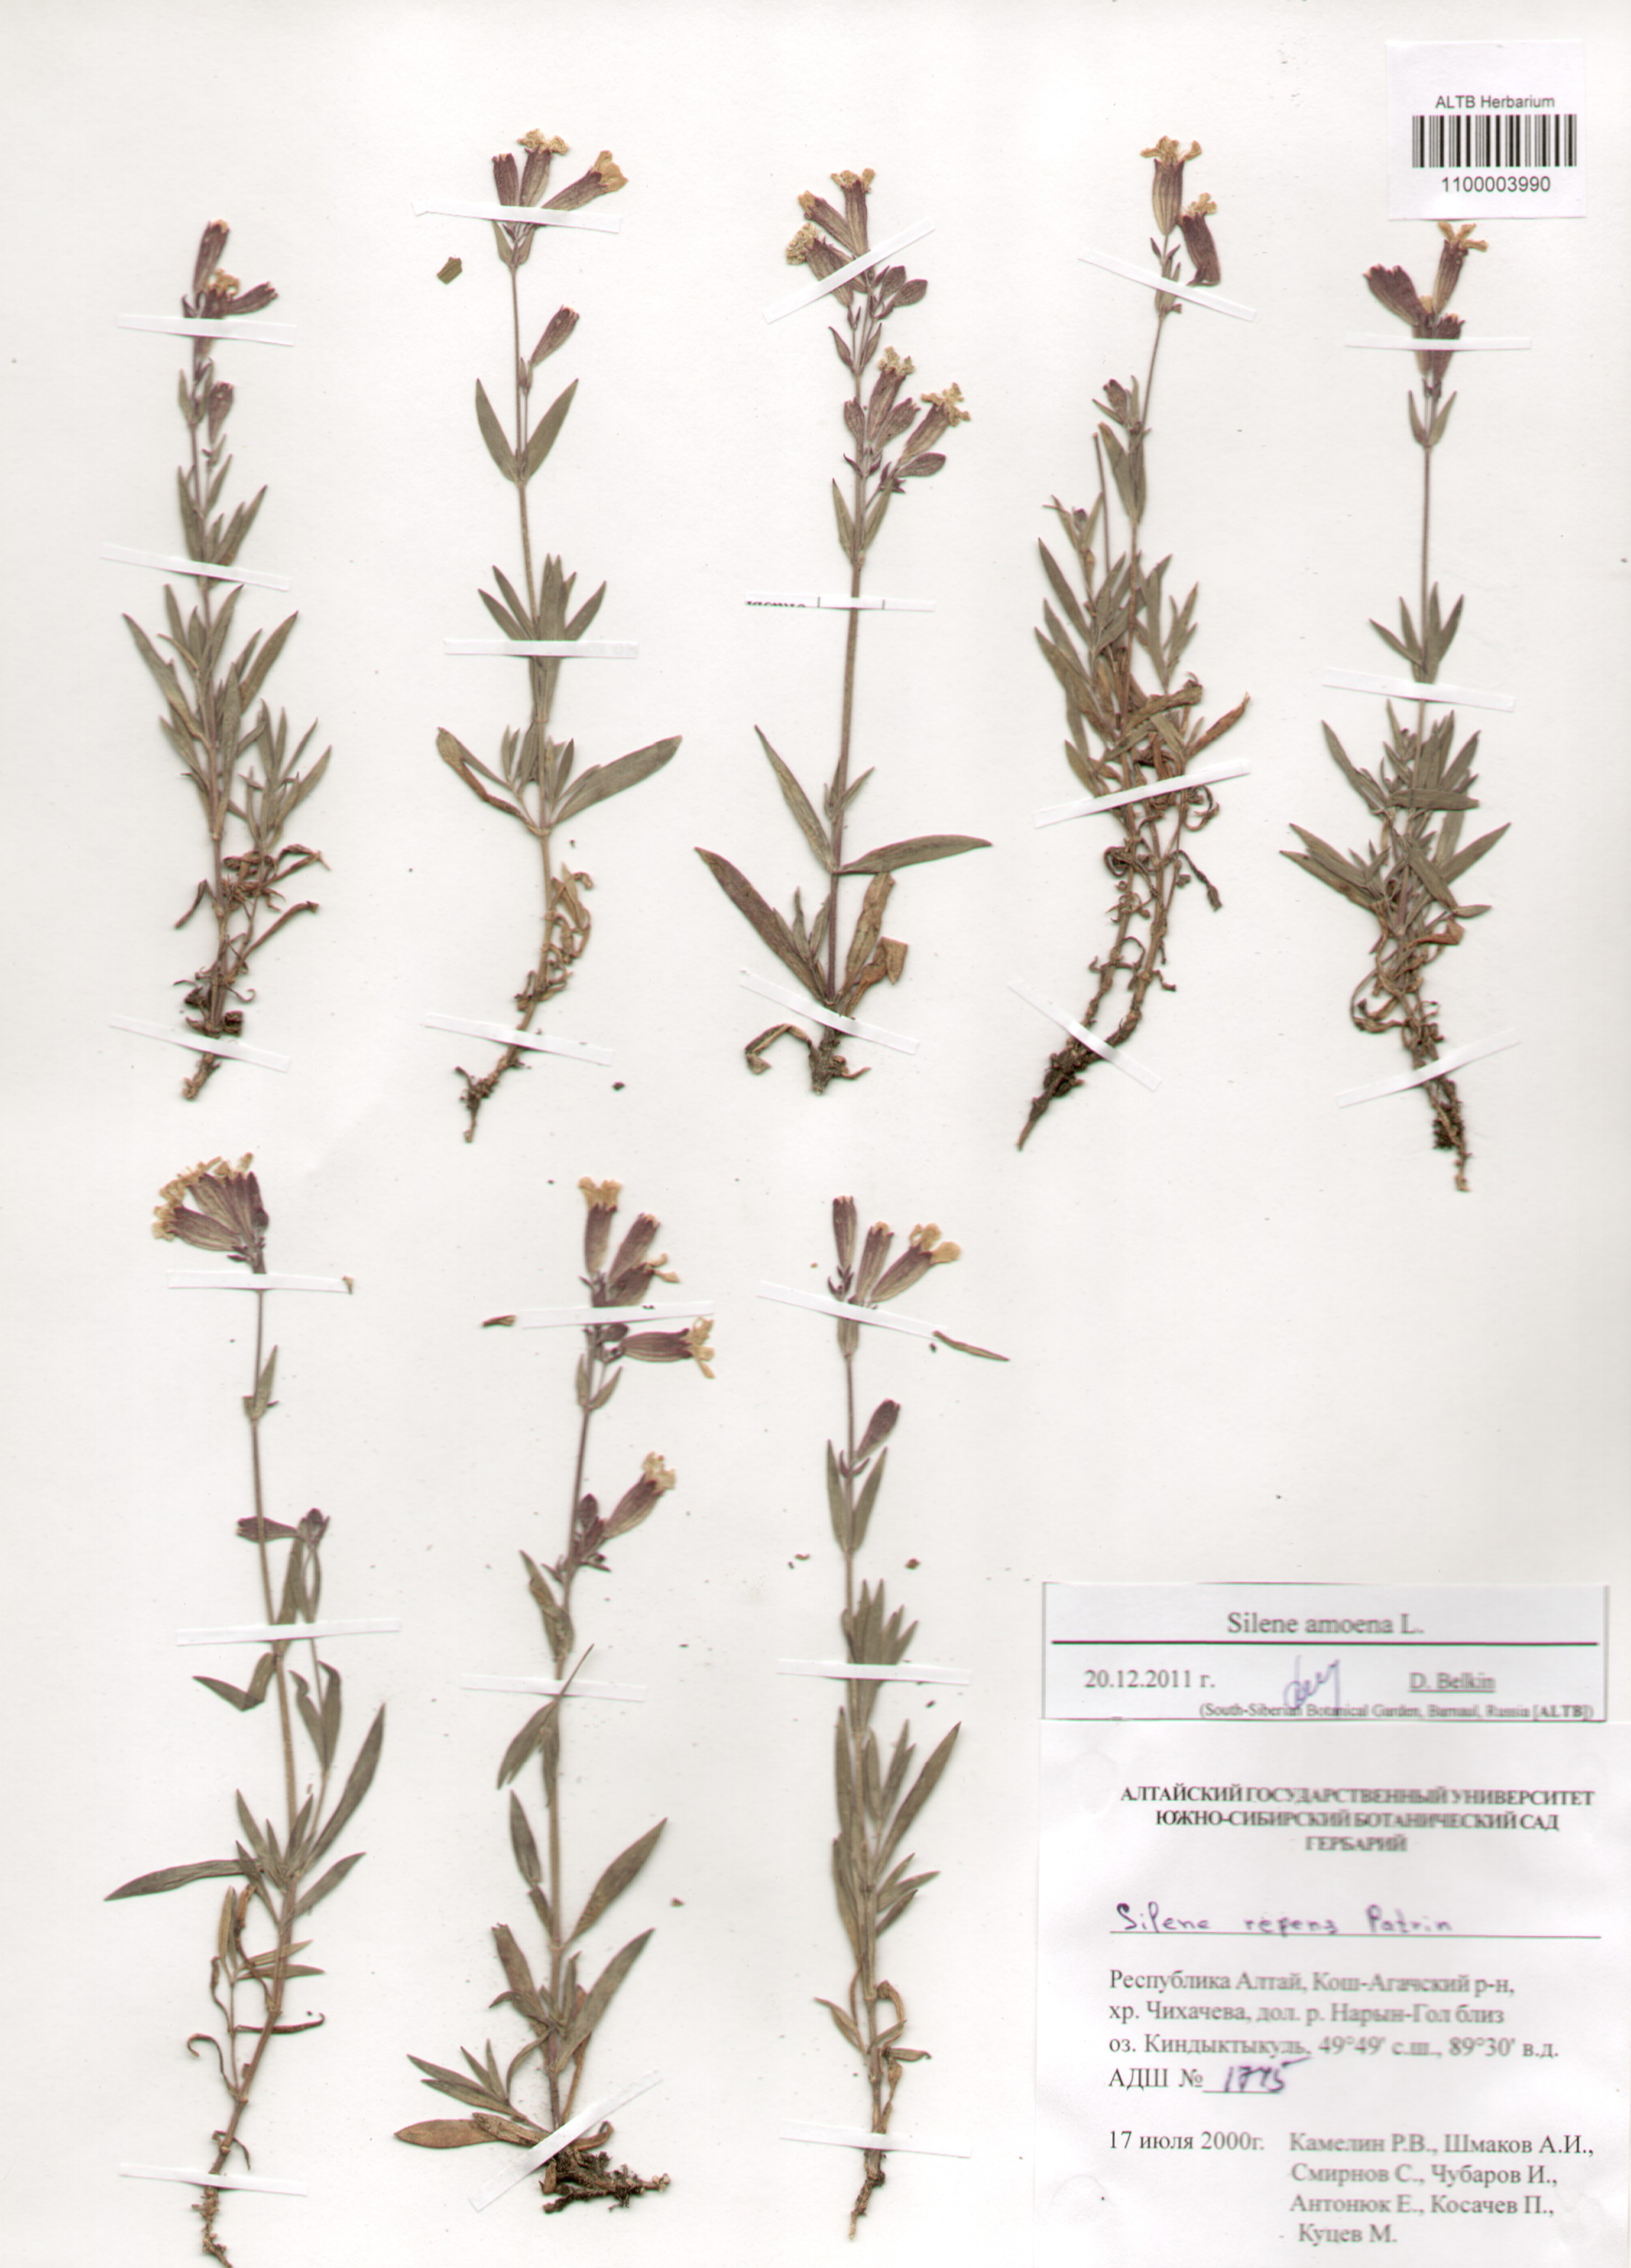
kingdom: Plantae
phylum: Tracheophyta
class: Magnoliopsida
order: Caryophyllales
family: Caryophyllaceae
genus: Silene
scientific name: Silene amoena
